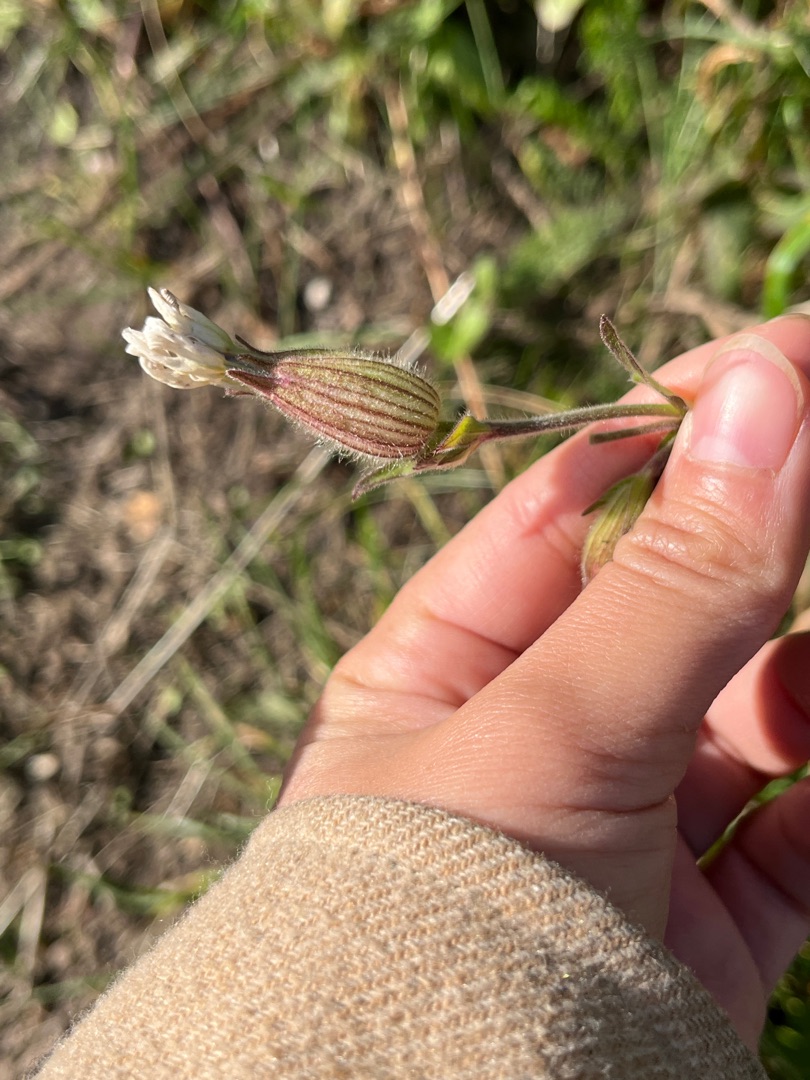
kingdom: Plantae
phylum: Tracheophyta
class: Magnoliopsida
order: Caryophyllales
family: Caryophyllaceae
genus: Silene
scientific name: Silene latifolia
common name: Aftenpragtstjerne
